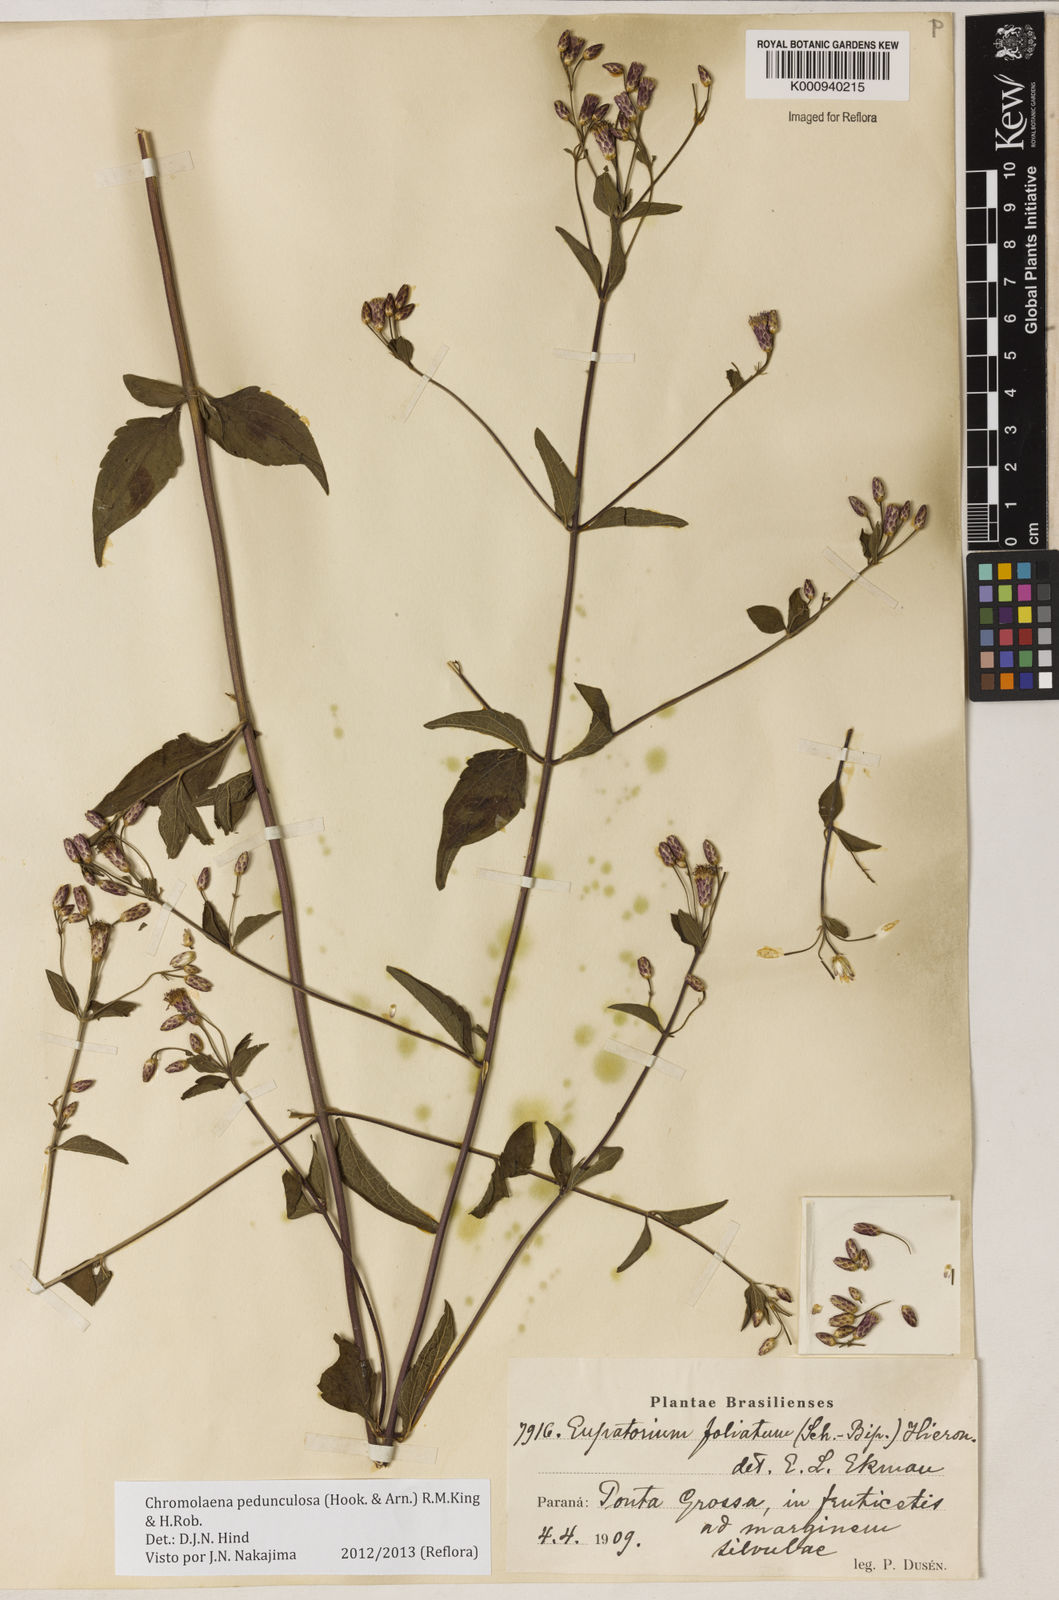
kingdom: Plantae
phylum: Tracheophyta
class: Magnoliopsida
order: Asterales
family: Asteraceae
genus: Chromolaena
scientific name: Chromolaena pedunculosa
